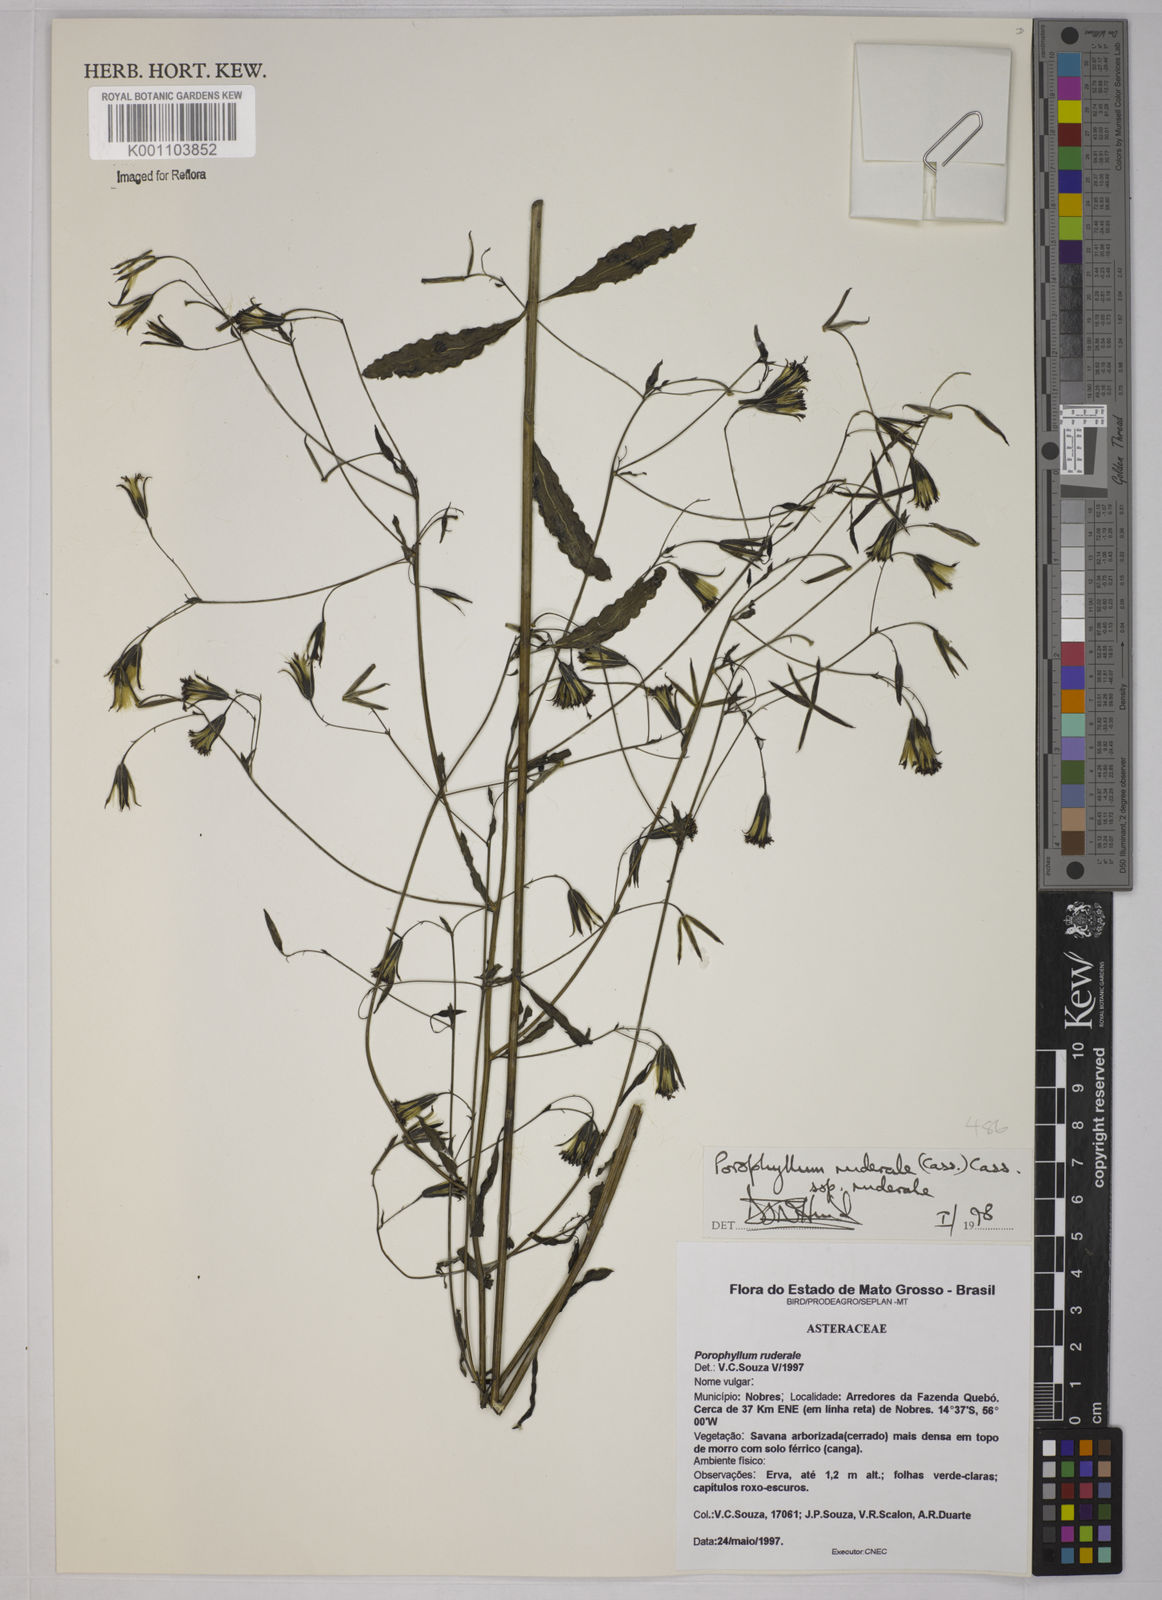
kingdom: Plantae
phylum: Tracheophyta
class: Magnoliopsida
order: Asterales
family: Asteraceae
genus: Porophyllum
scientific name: Porophyllum ruderale
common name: Yerba porosa
